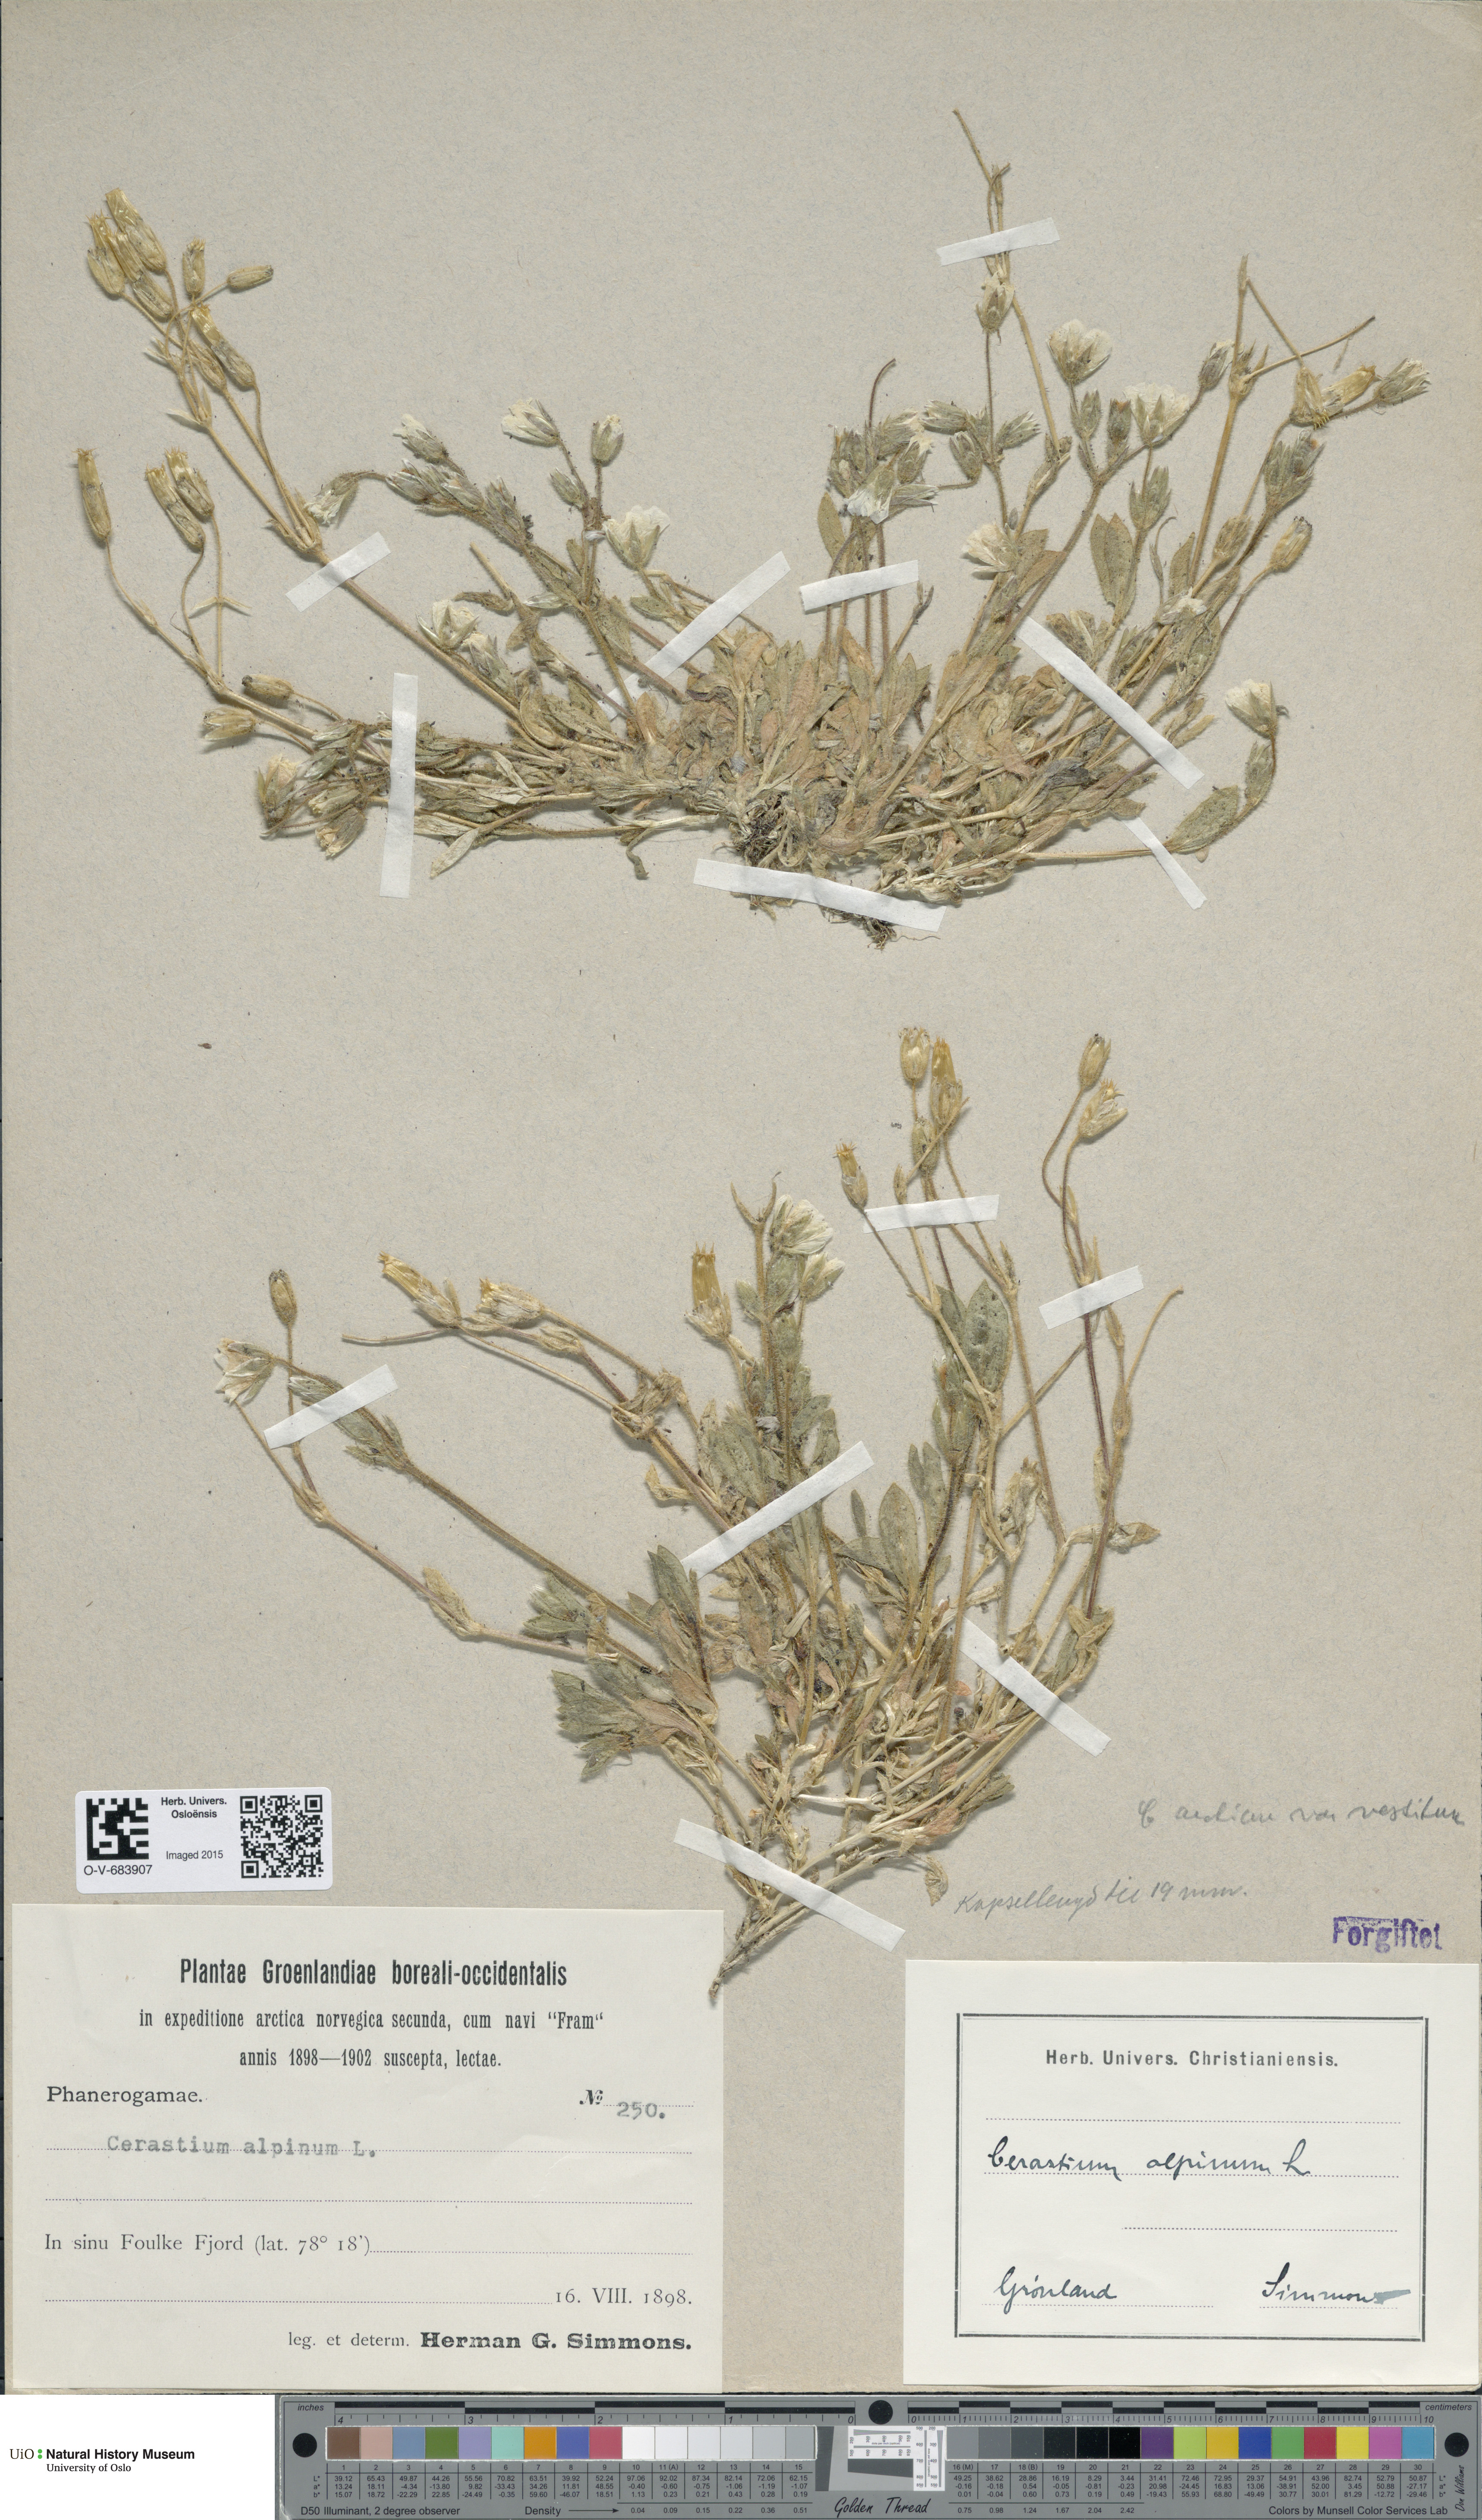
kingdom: Plantae
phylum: Tracheophyta
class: Magnoliopsida
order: Caryophyllales
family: Caryophyllaceae
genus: Cerastium
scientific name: Cerastium arcticum
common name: Arctic mouse-ear
